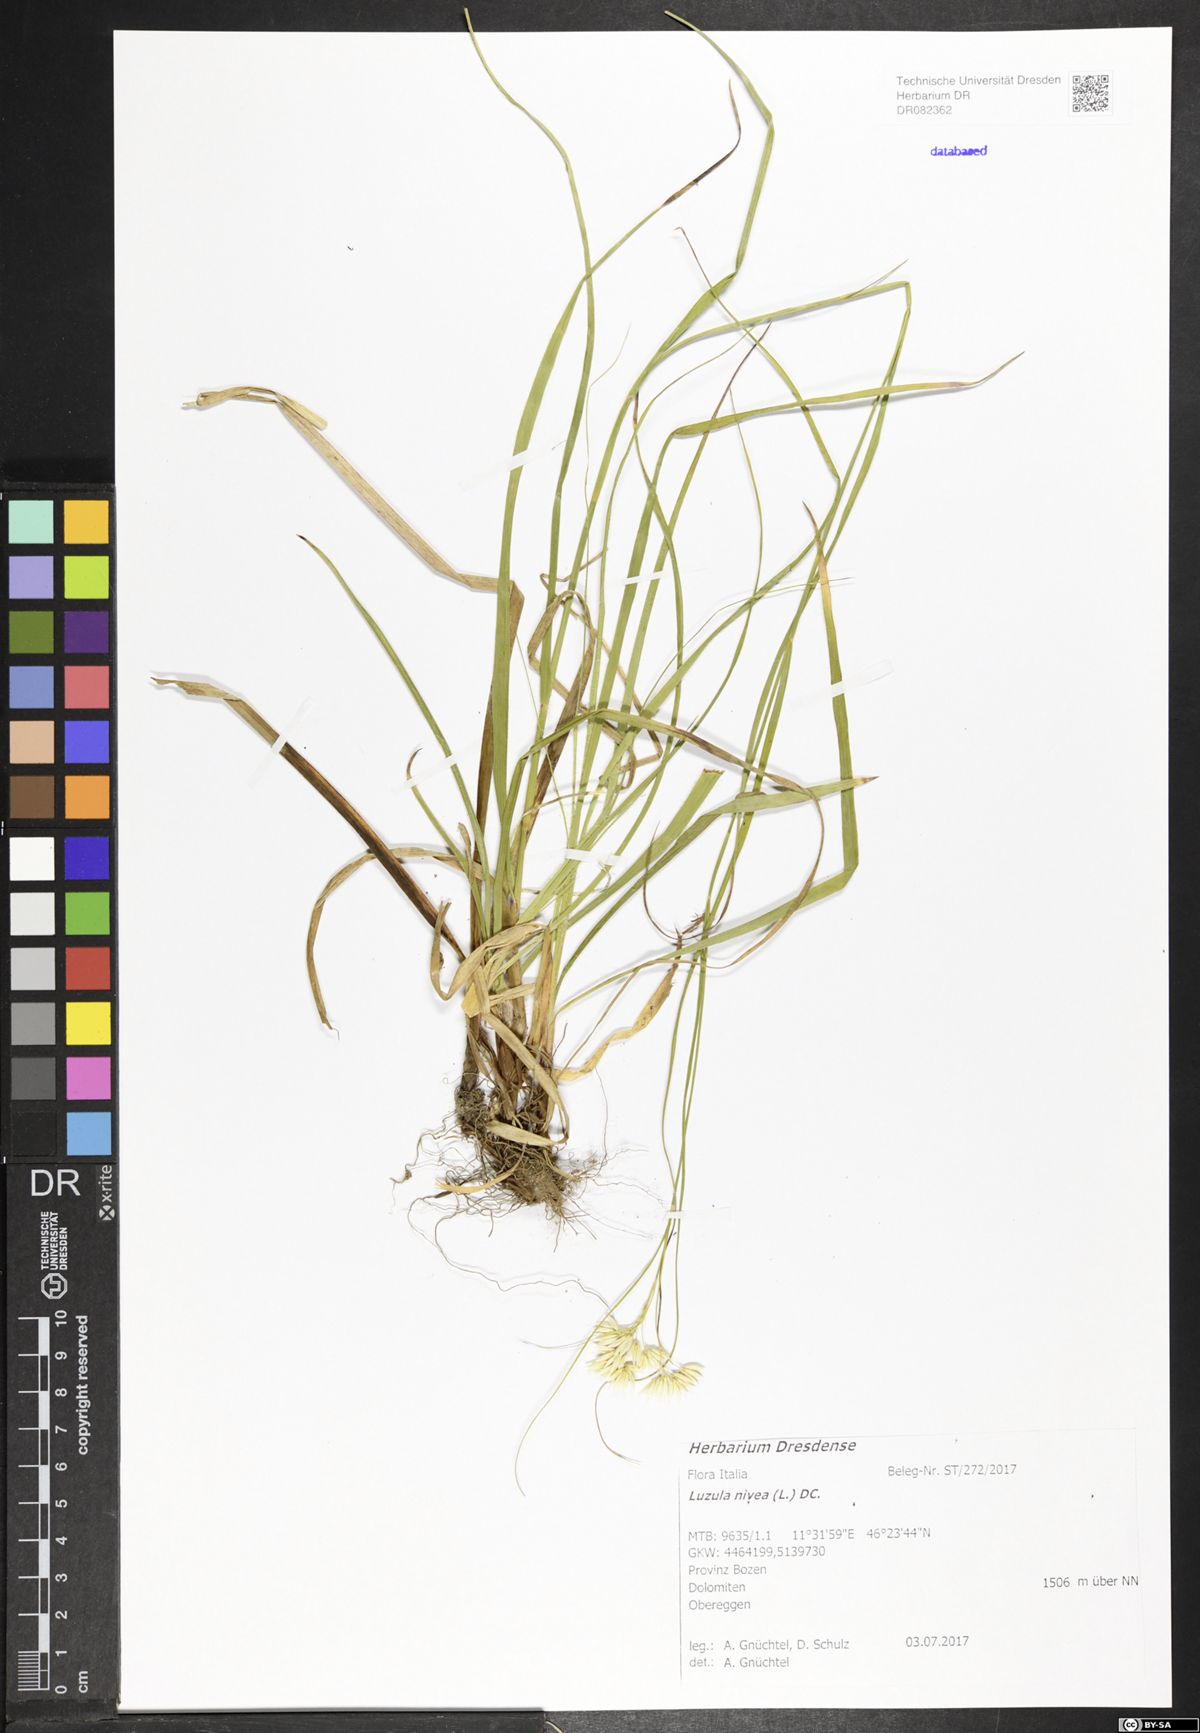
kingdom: Plantae
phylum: Tracheophyta
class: Liliopsida
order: Poales
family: Juncaceae
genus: Luzula
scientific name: Luzula nivea
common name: Snow-white wood-rush
